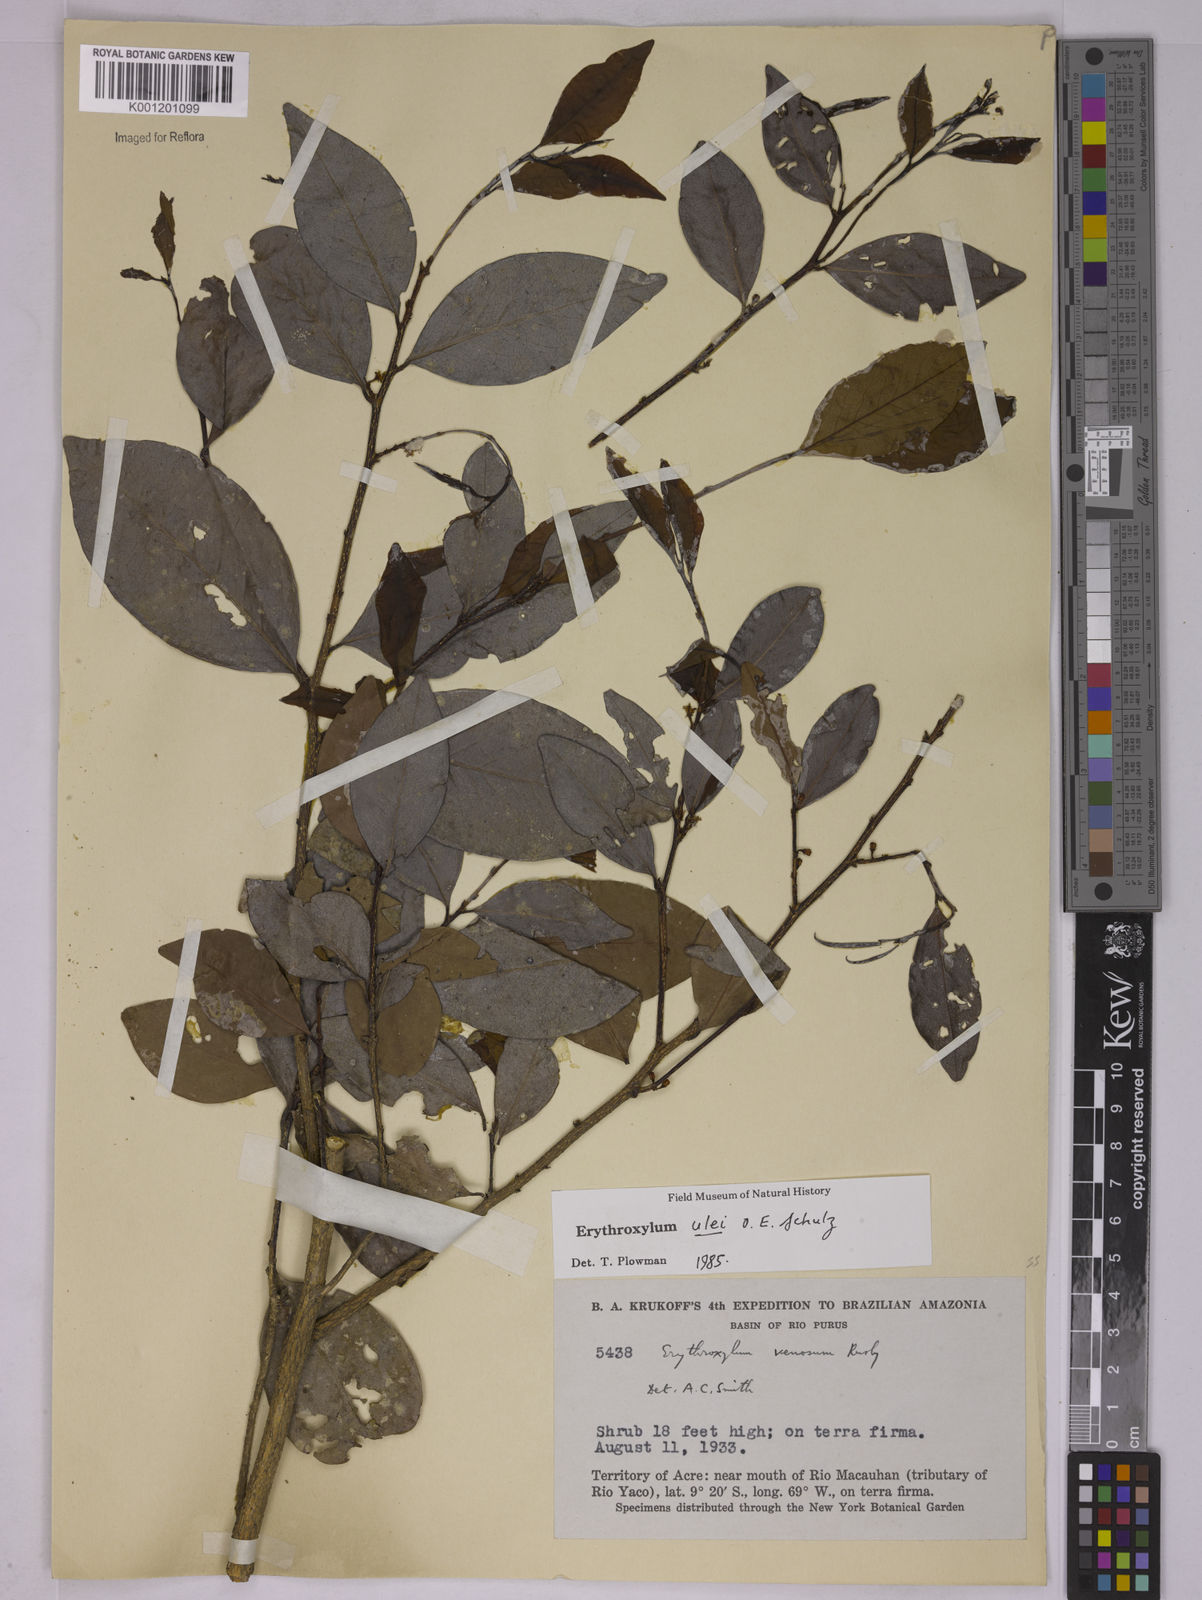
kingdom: Plantae
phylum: Tracheophyta
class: Magnoliopsida
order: Malpighiales
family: Erythroxylaceae
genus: Erythroxylum
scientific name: Erythroxylum ulei
